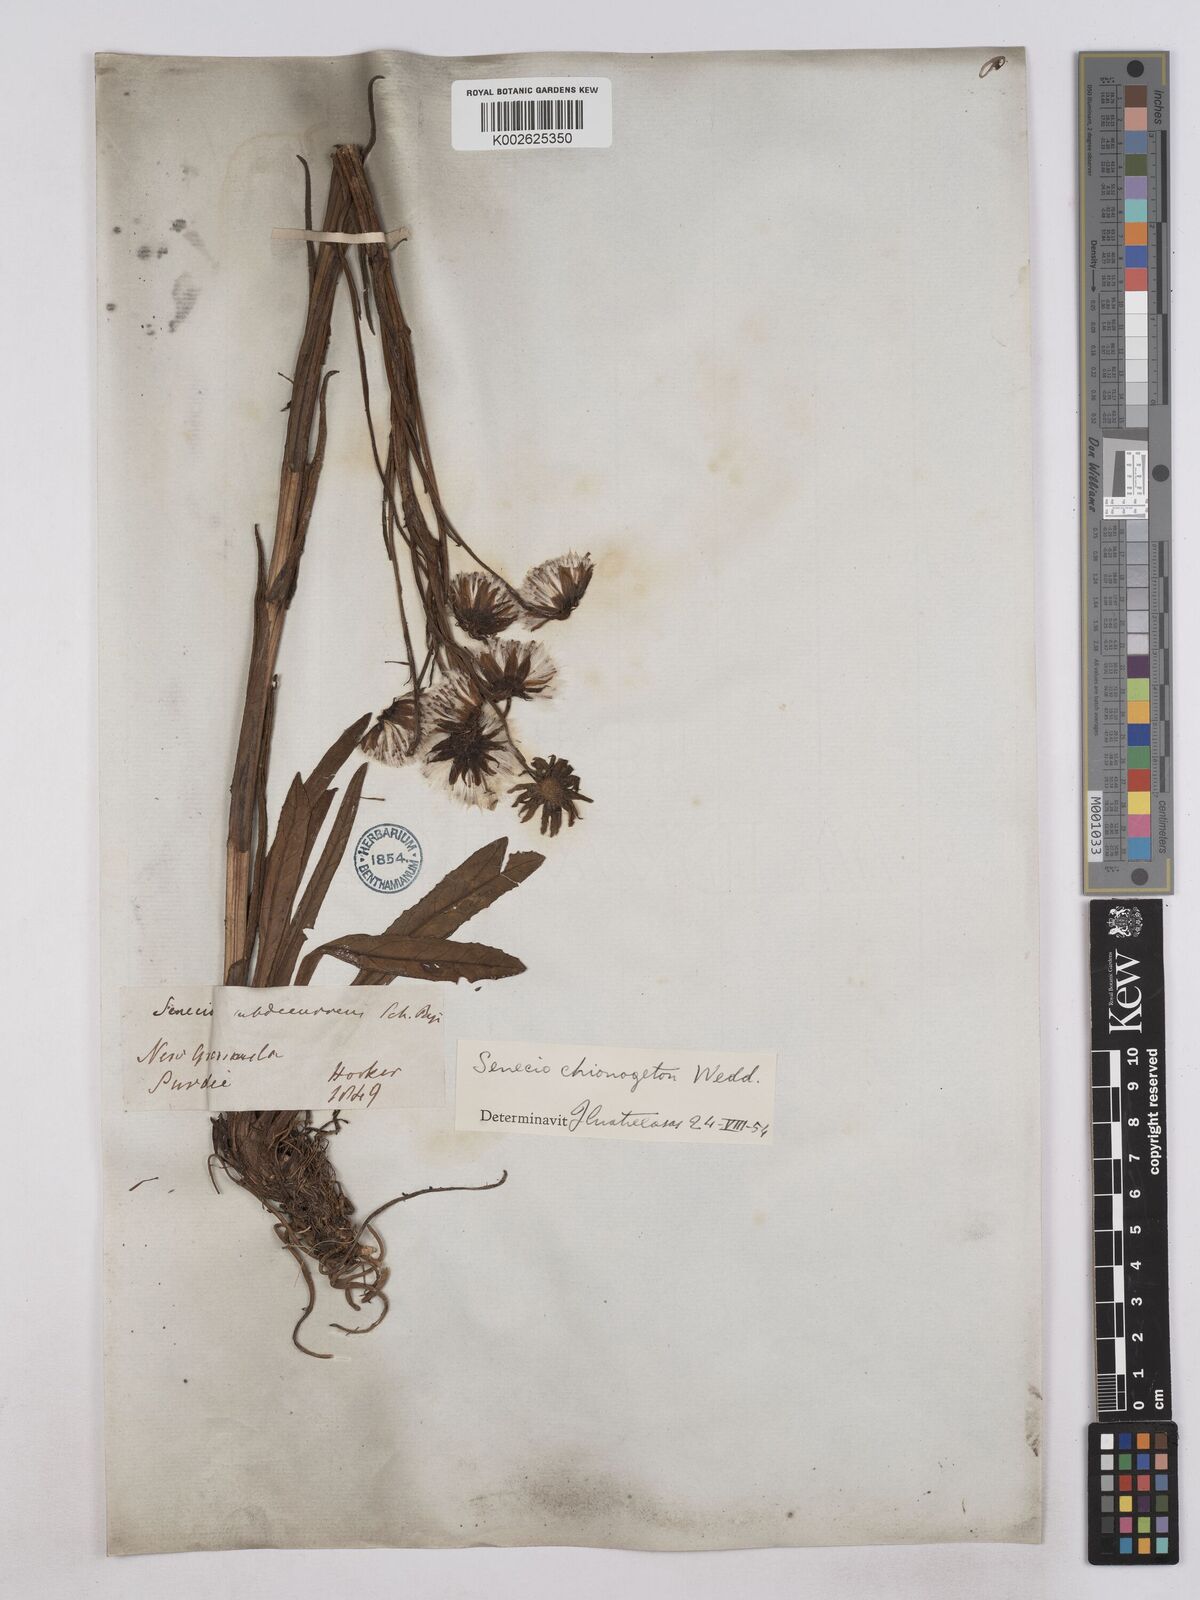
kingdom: Plantae
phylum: Tracheophyta
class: Magnoliopsida
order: Asterales
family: Asteraceae
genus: Senecio
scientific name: Senecio chionogeton
